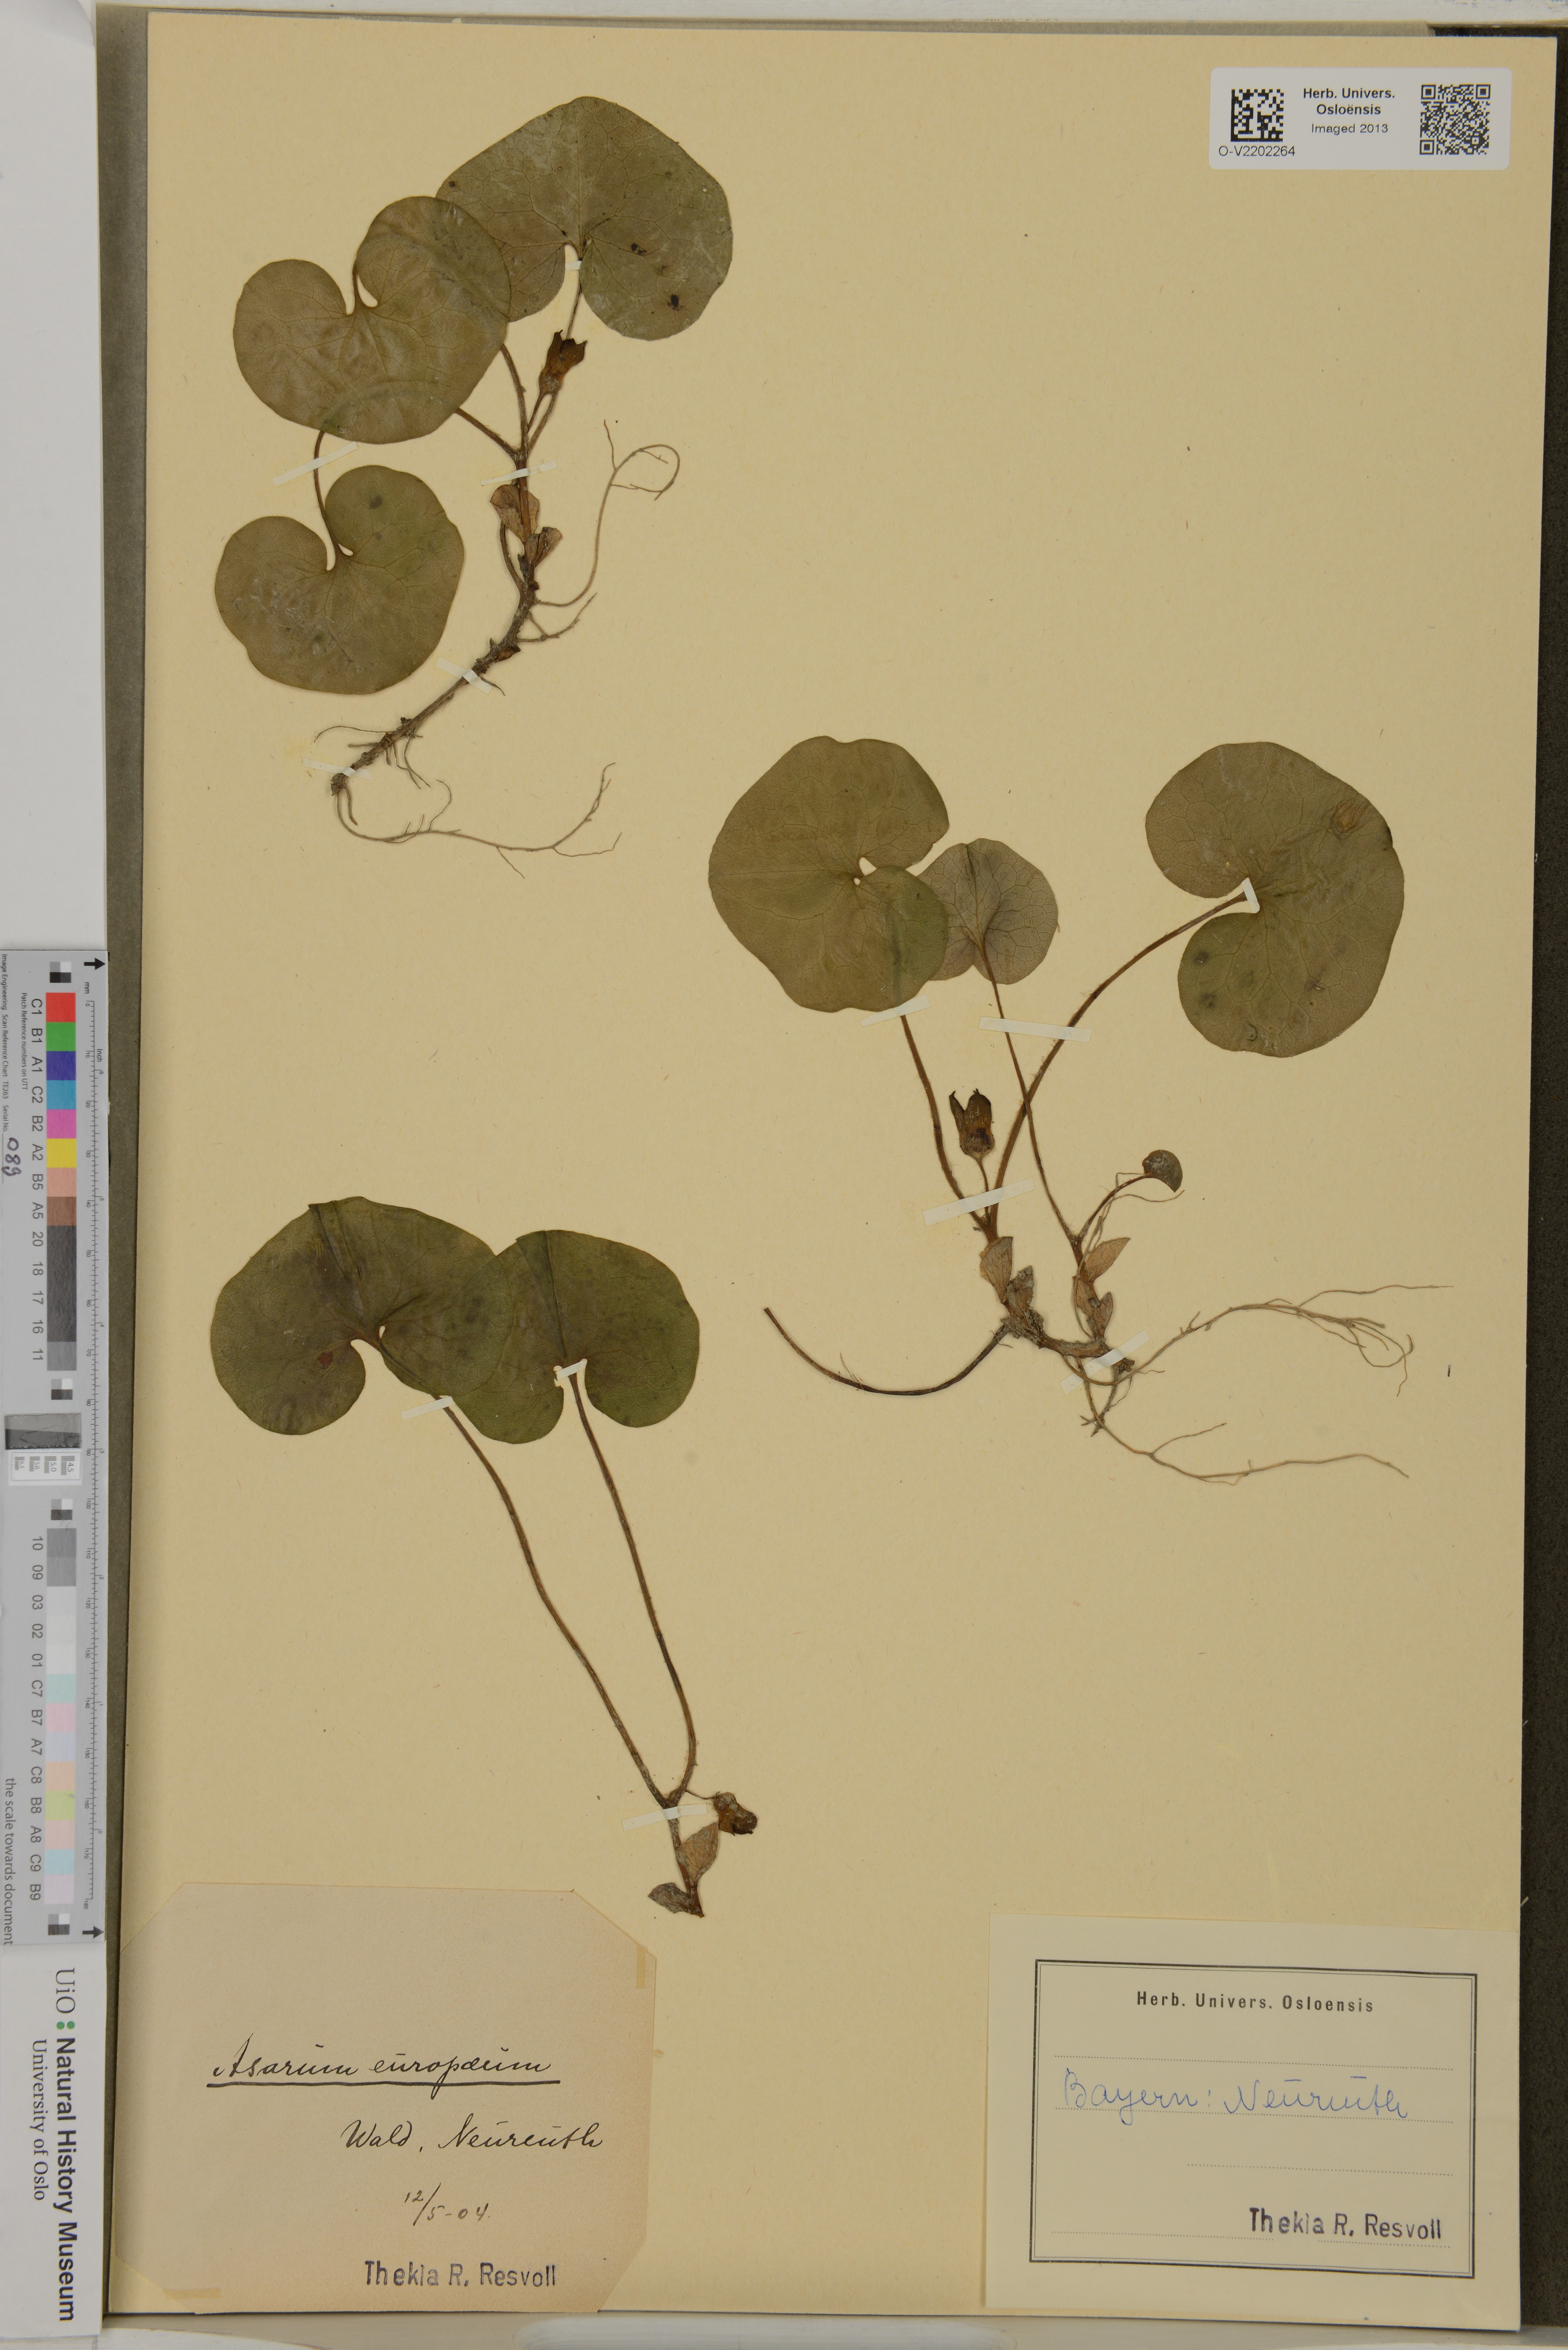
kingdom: Plantae
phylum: Tracheophyta
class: Magnoliopsida
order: Piperales
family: Aristolochiaceae
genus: Asarum
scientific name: Asarum europaeum
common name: Asarabacca
